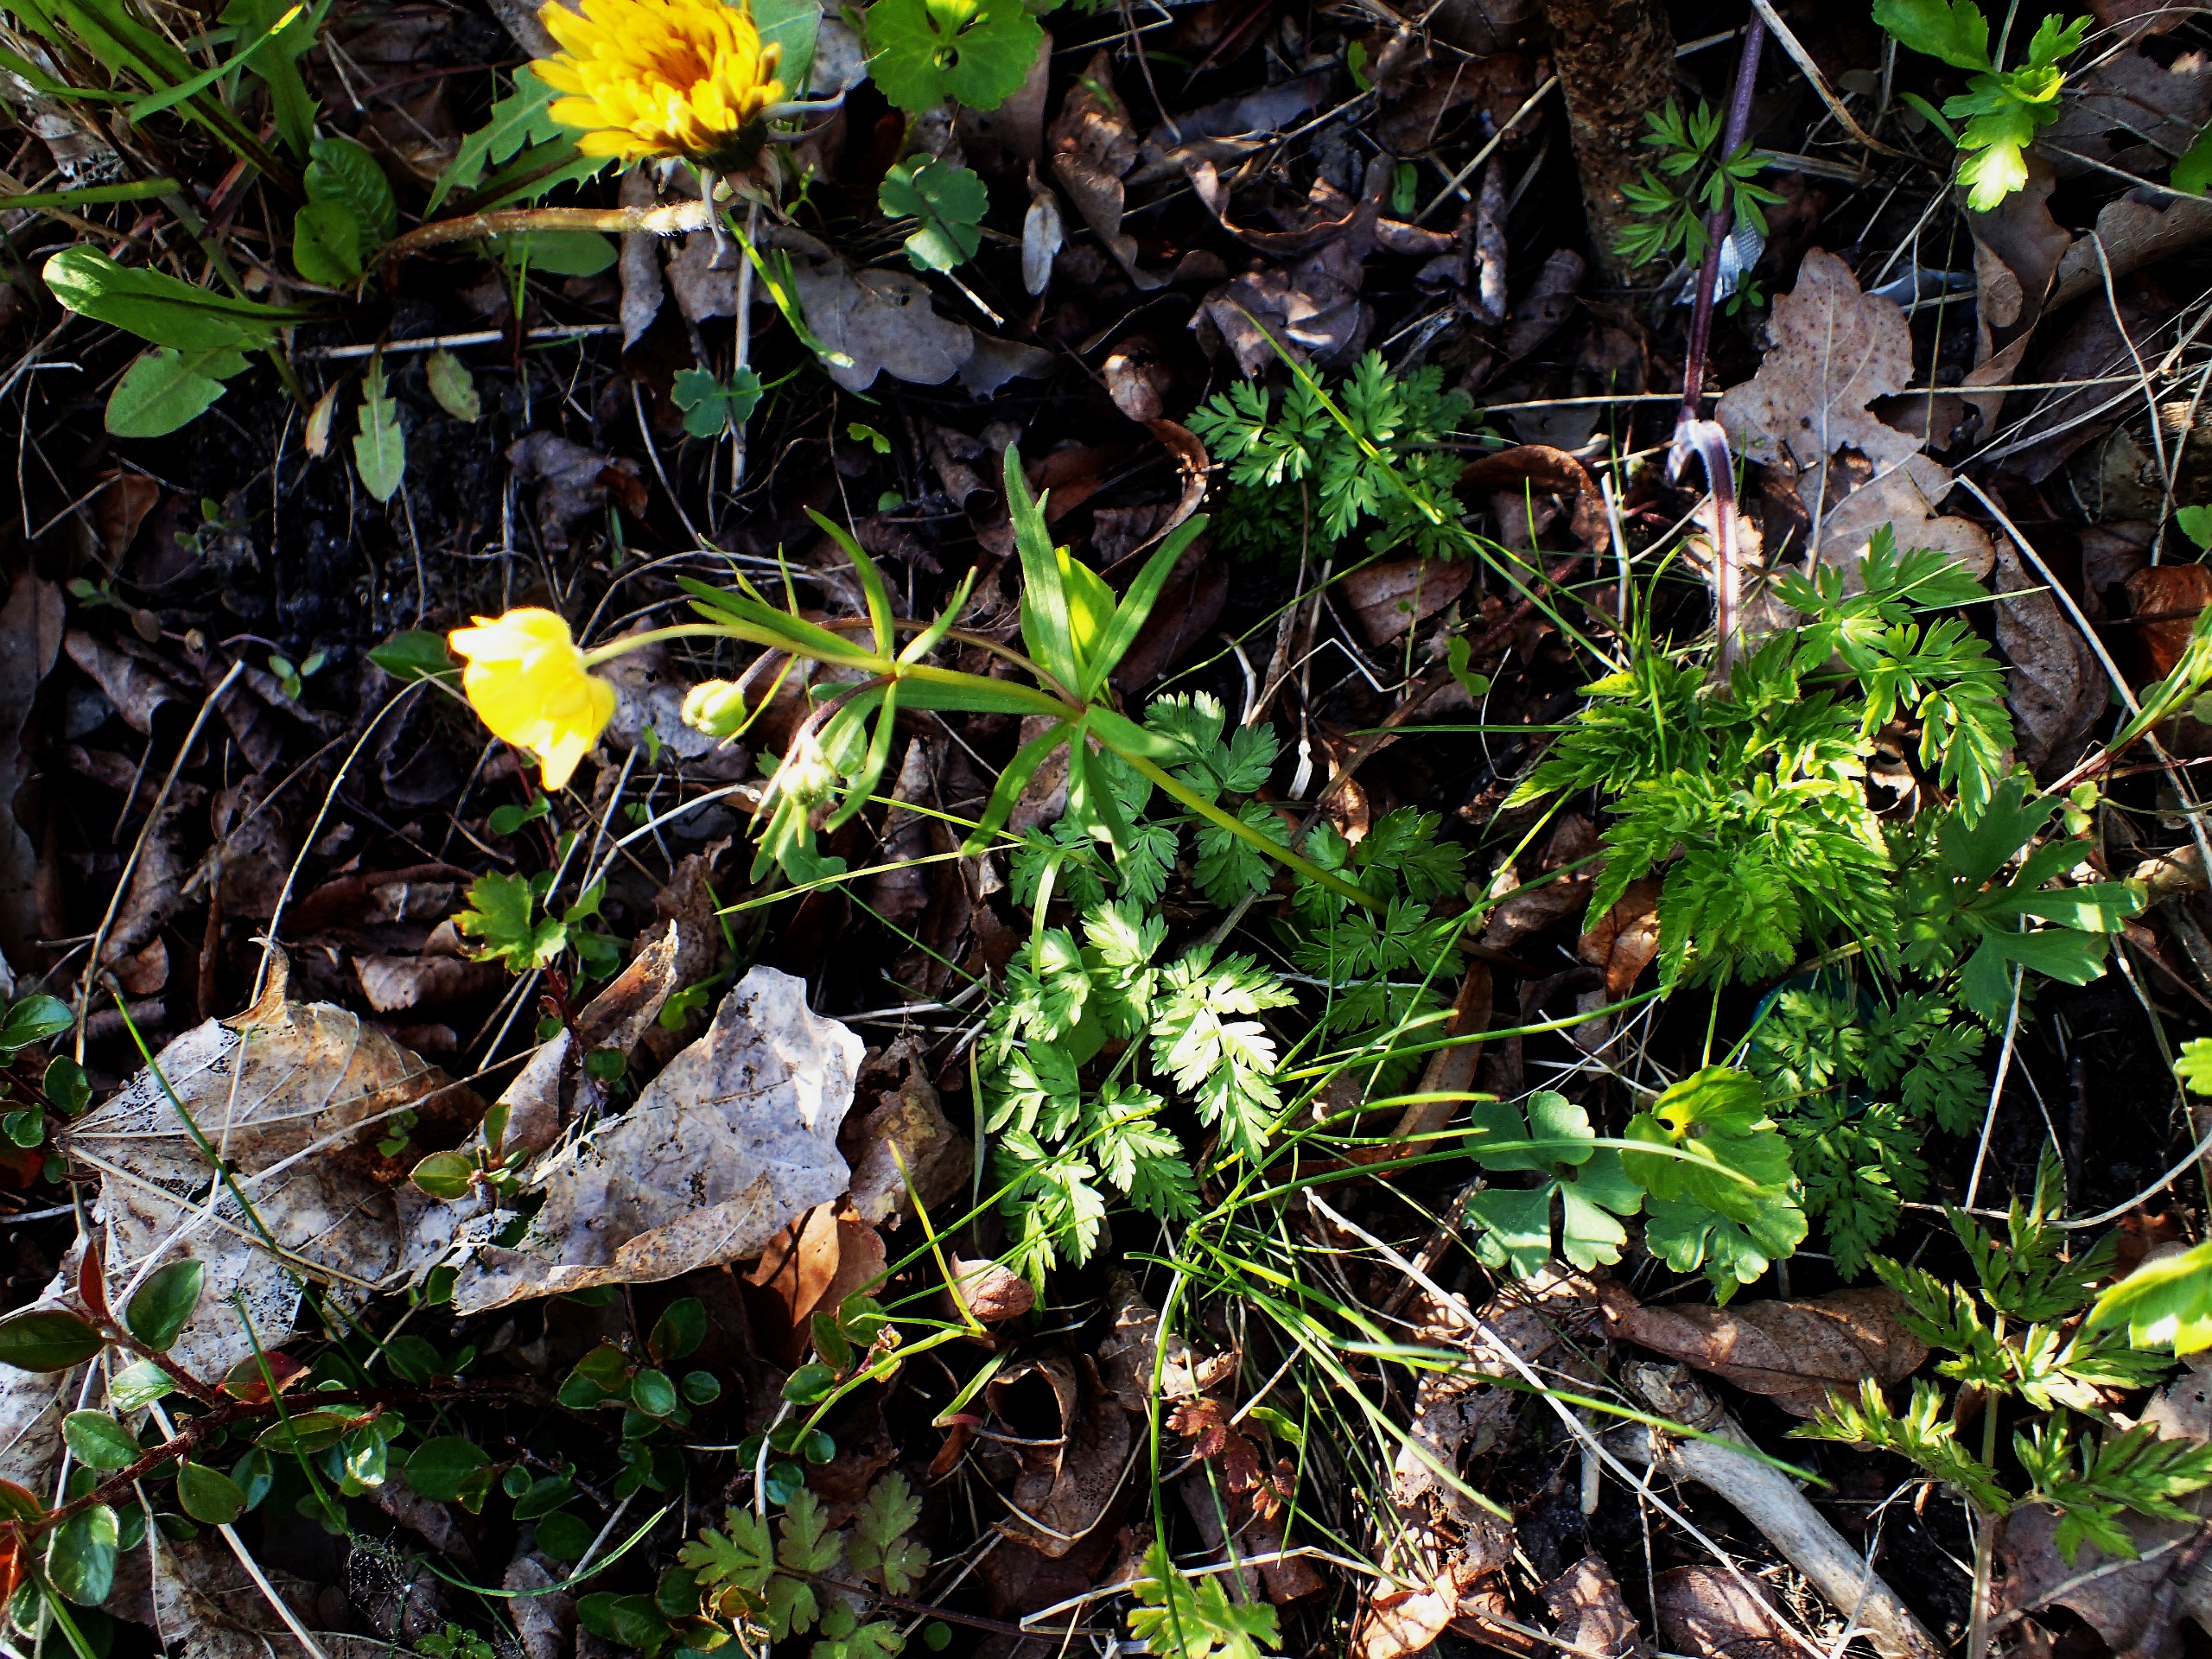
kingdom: Plantae
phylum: Tracheophyta
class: Magnoliopsida
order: Ranunculales
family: Ranunculaceae
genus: Ranunculus
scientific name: Ranunculus auricomus
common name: Nyrebladet ranunkel
